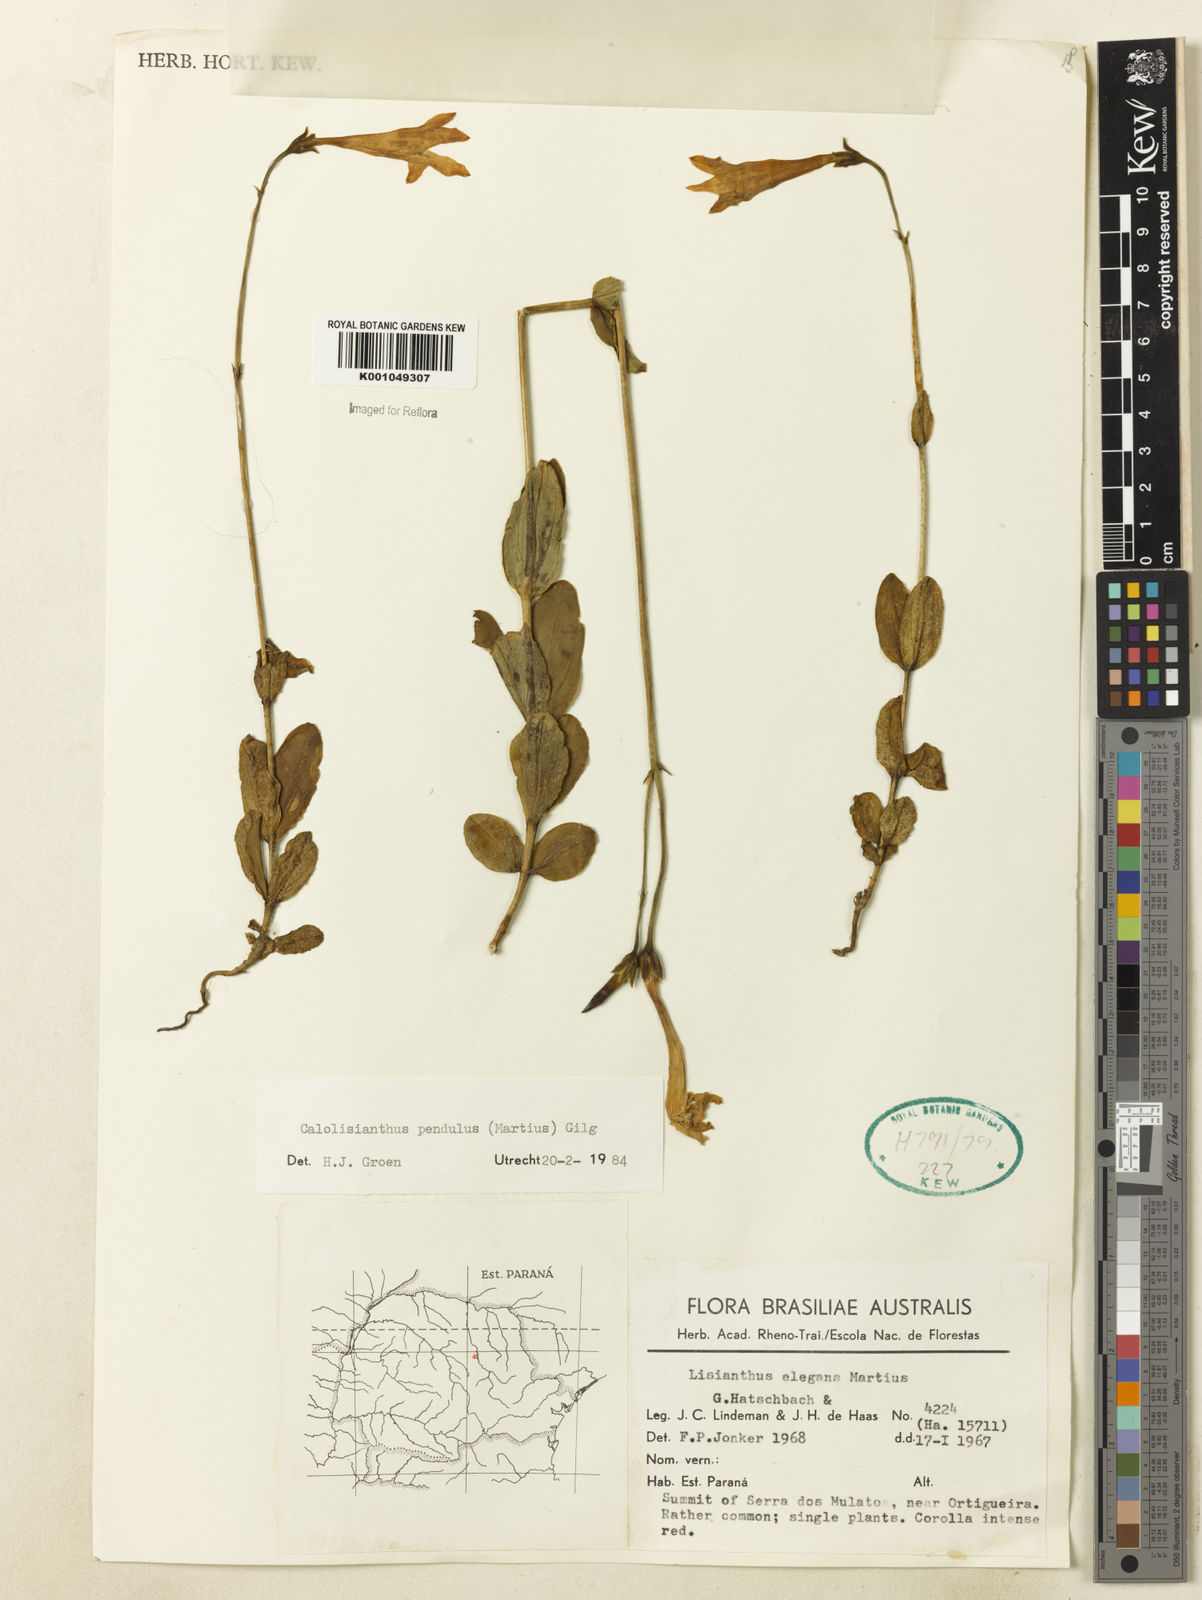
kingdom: Plantae
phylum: Tracheophyta
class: Magnoliopsida
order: Gentianales
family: Gentianaceae
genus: Calolisianthus
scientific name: Calolisianthus pendulus
